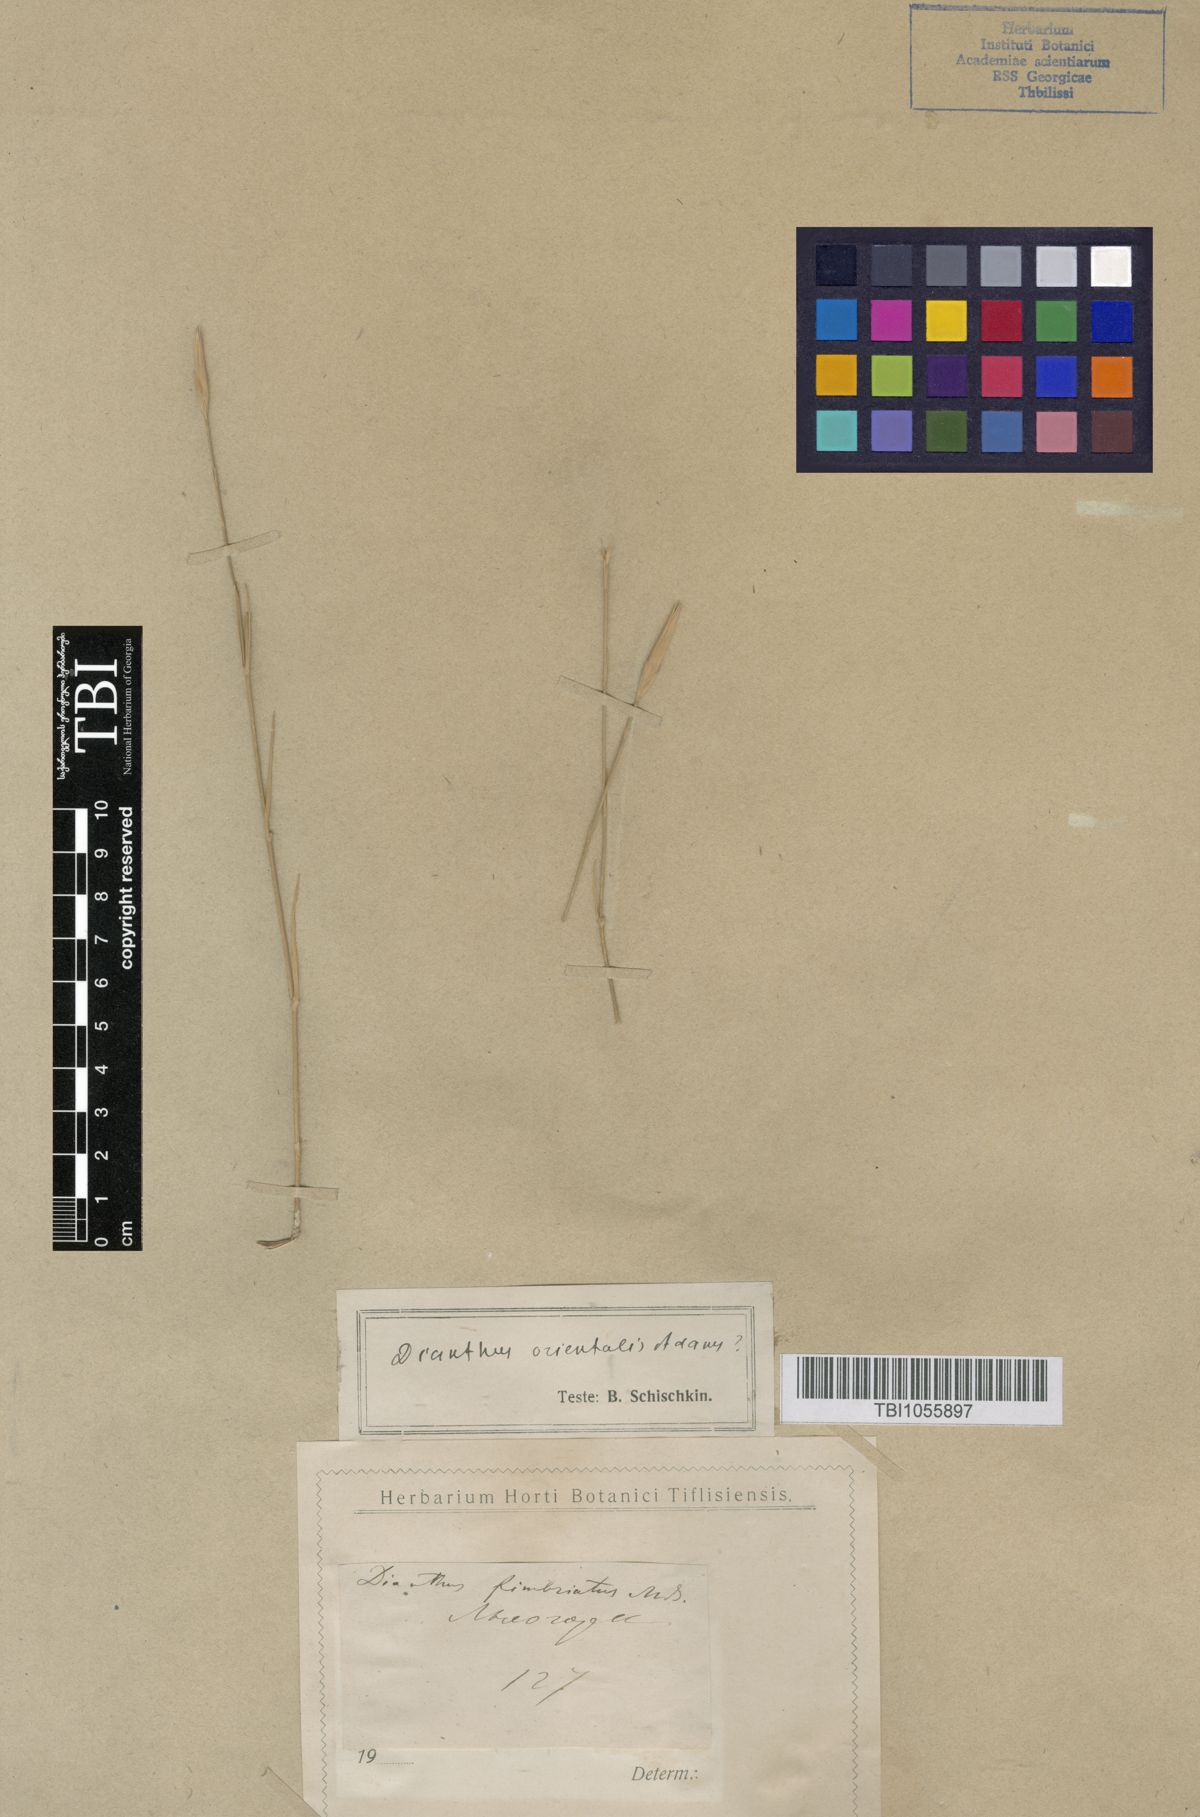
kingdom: Plantae
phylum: Tracheophyta
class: Magnoliopsida
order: Caryophyllales
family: Caryophyllaceae
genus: Dianthus
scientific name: Dianthus orientalis
